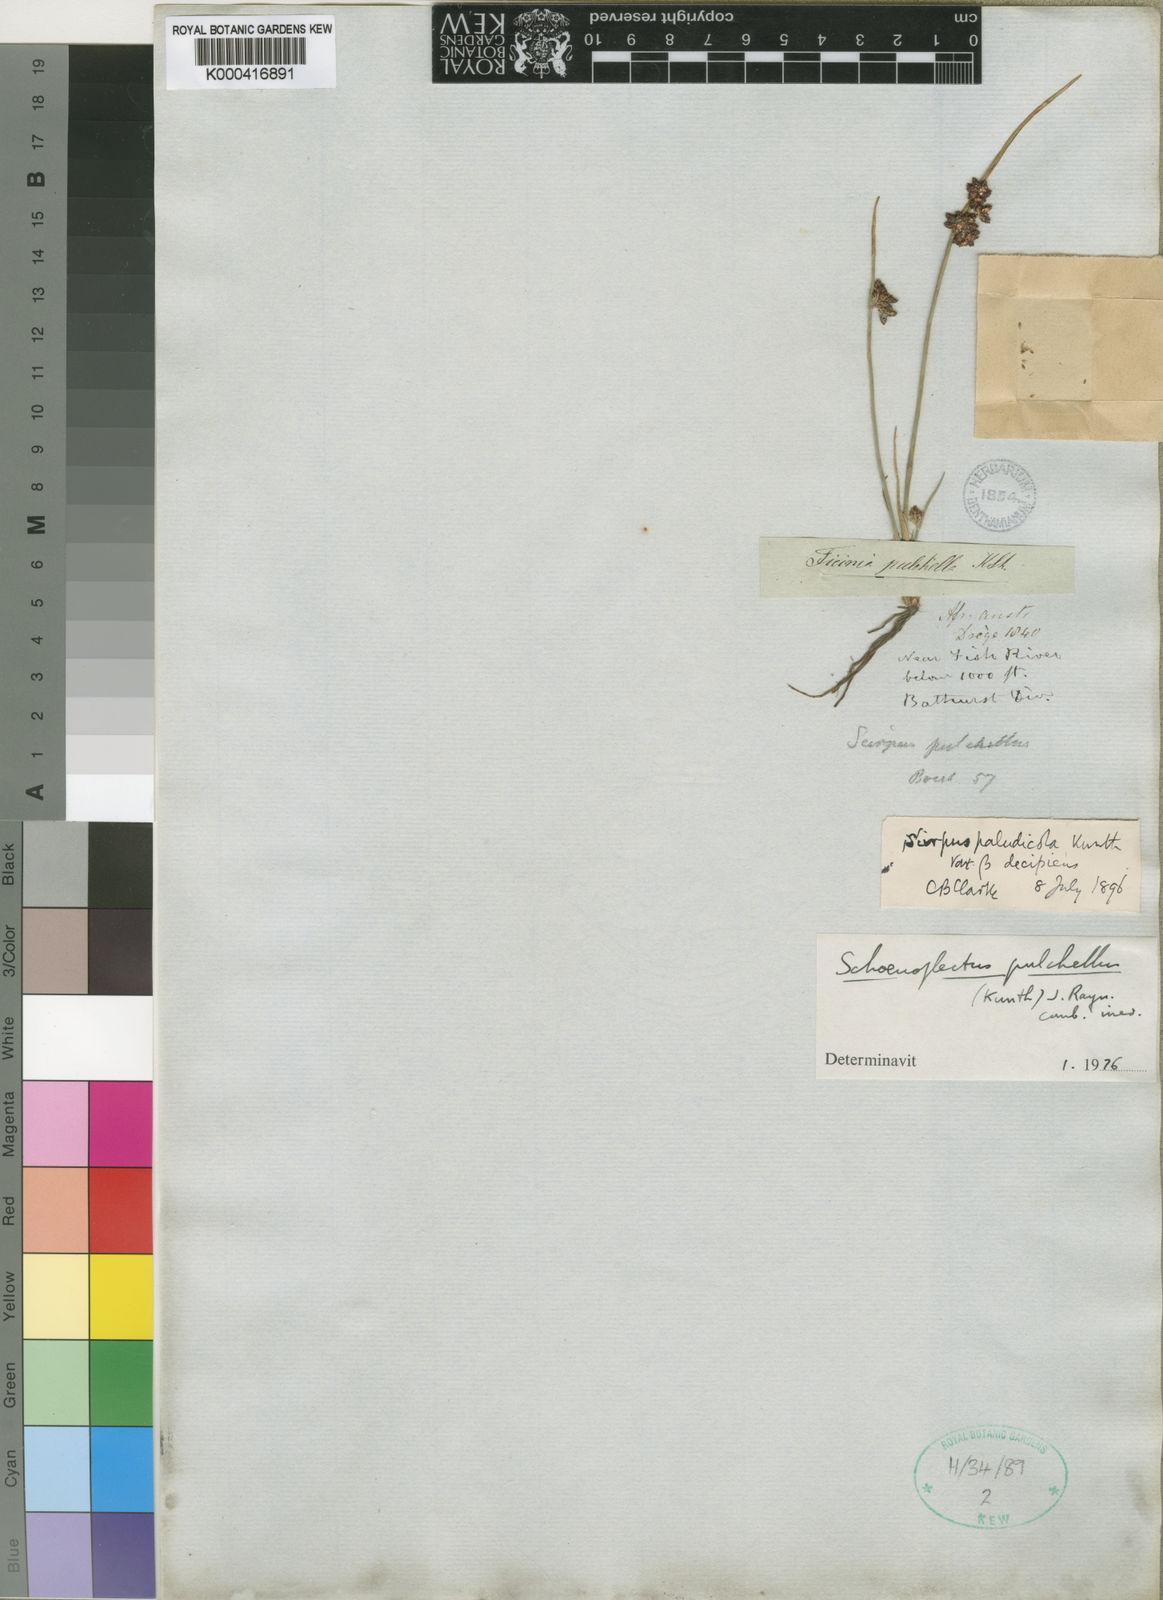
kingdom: Plantae
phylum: Tracheophyta
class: Liliopsida
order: Poales
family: Cyperaceae
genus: Schoenoplectiella
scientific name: Schoenoplectiella pulchella
